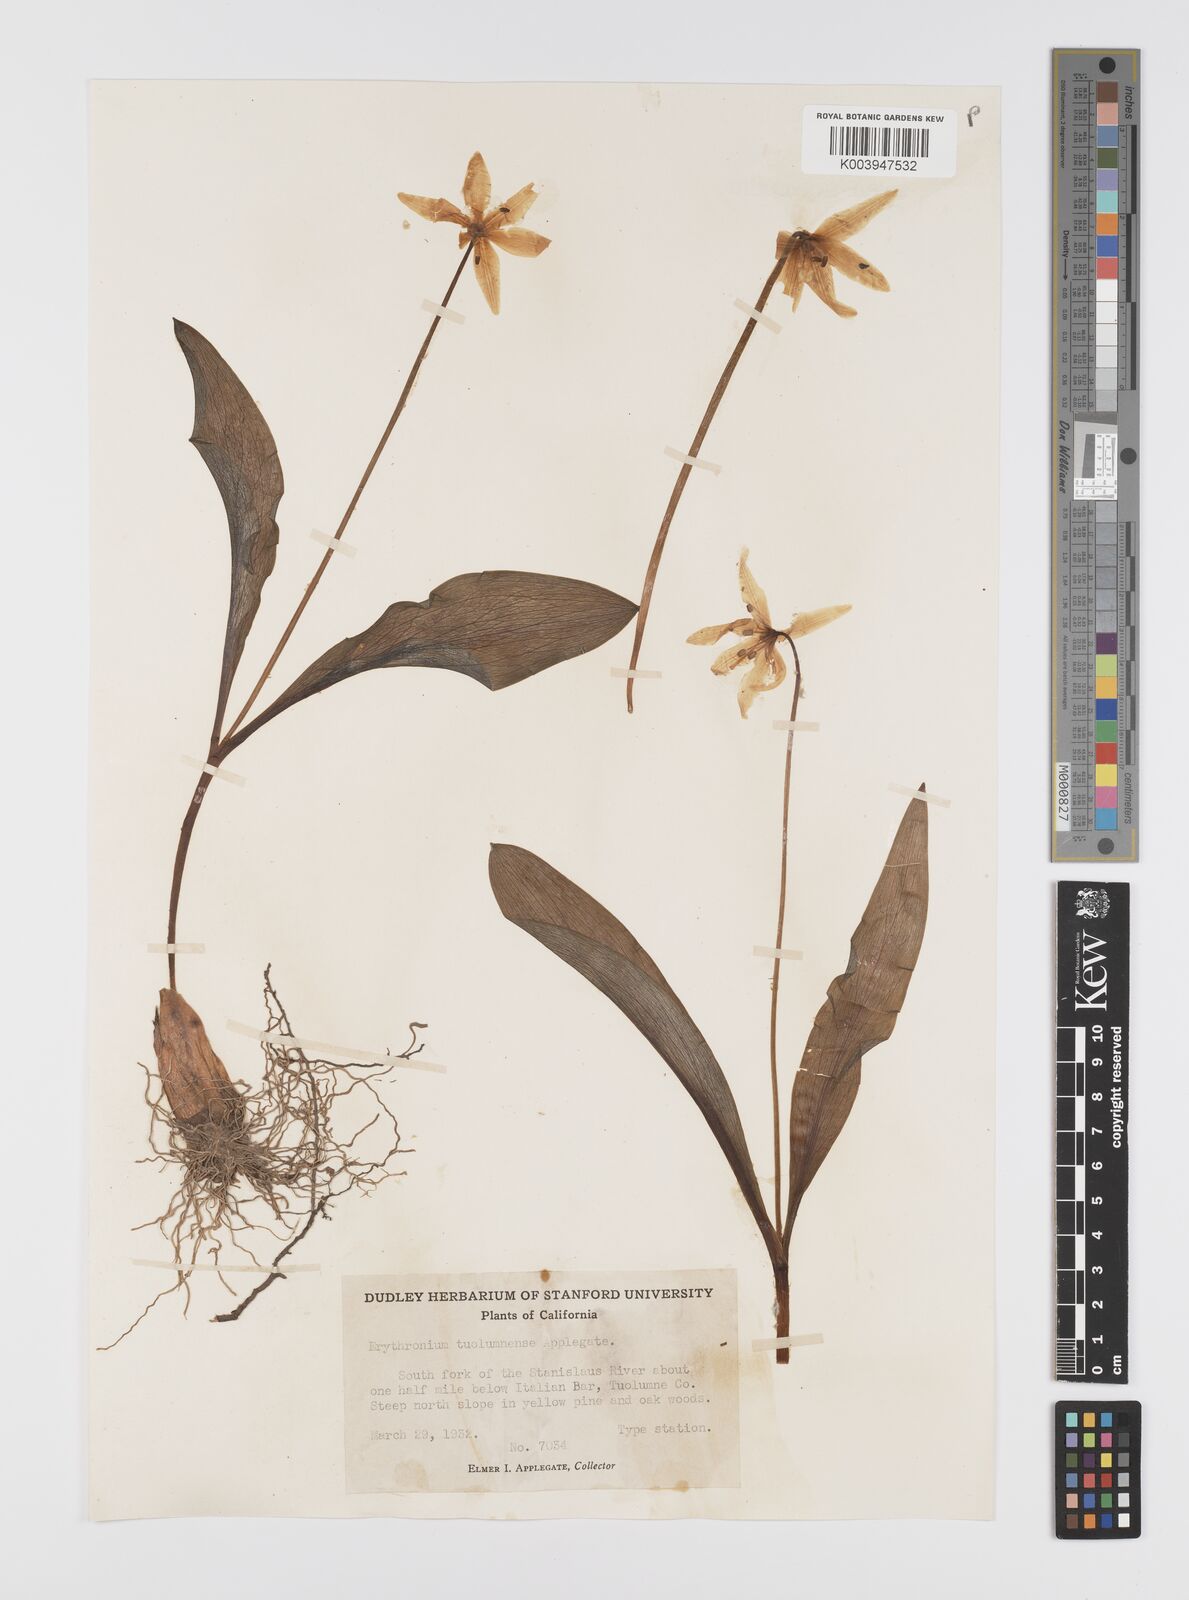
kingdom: Plantae
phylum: Tracheophyta
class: Liliopsida
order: Liliales
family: Liliaceae
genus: Erythronium
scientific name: Erythronium tuolumnense
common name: Tuolumne fawn-lily
